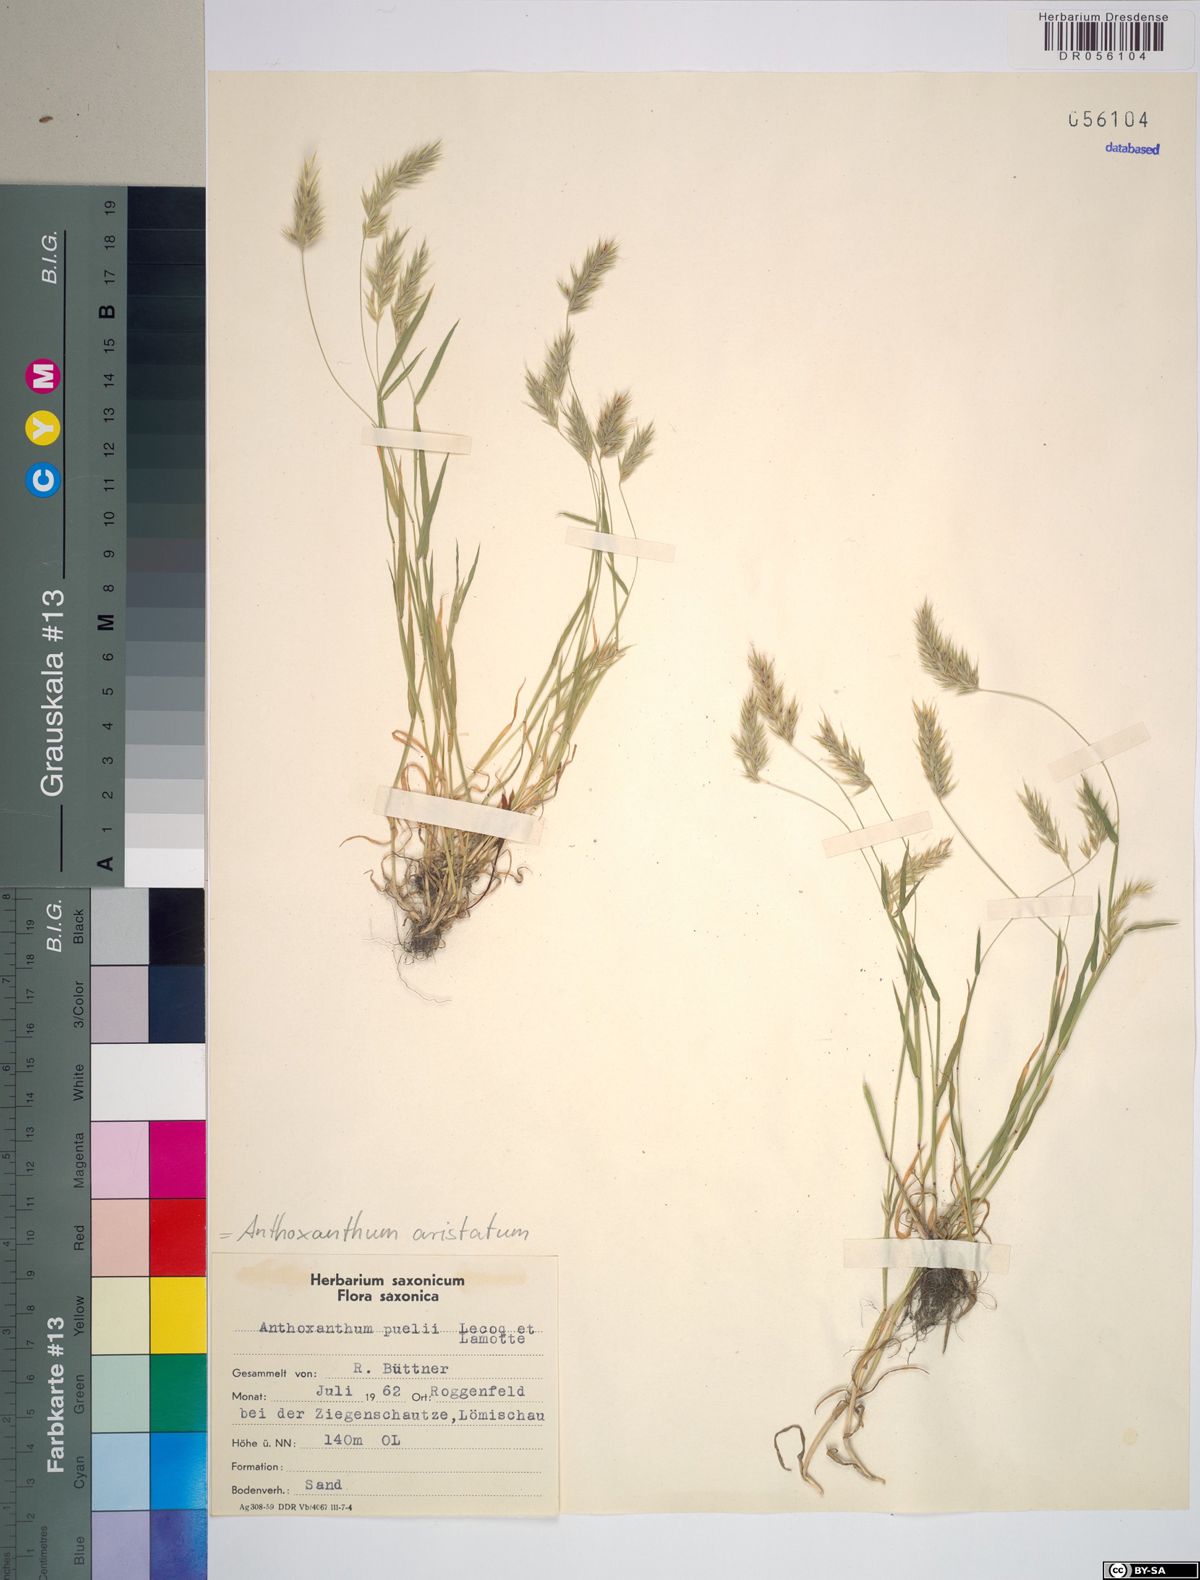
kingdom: Plantae
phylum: Tracheophyta
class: Liliopsida
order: Poales
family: Poaceae
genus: Anthoxanthum
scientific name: Anthoxanthum aristatum
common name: Annual vernal-grass
